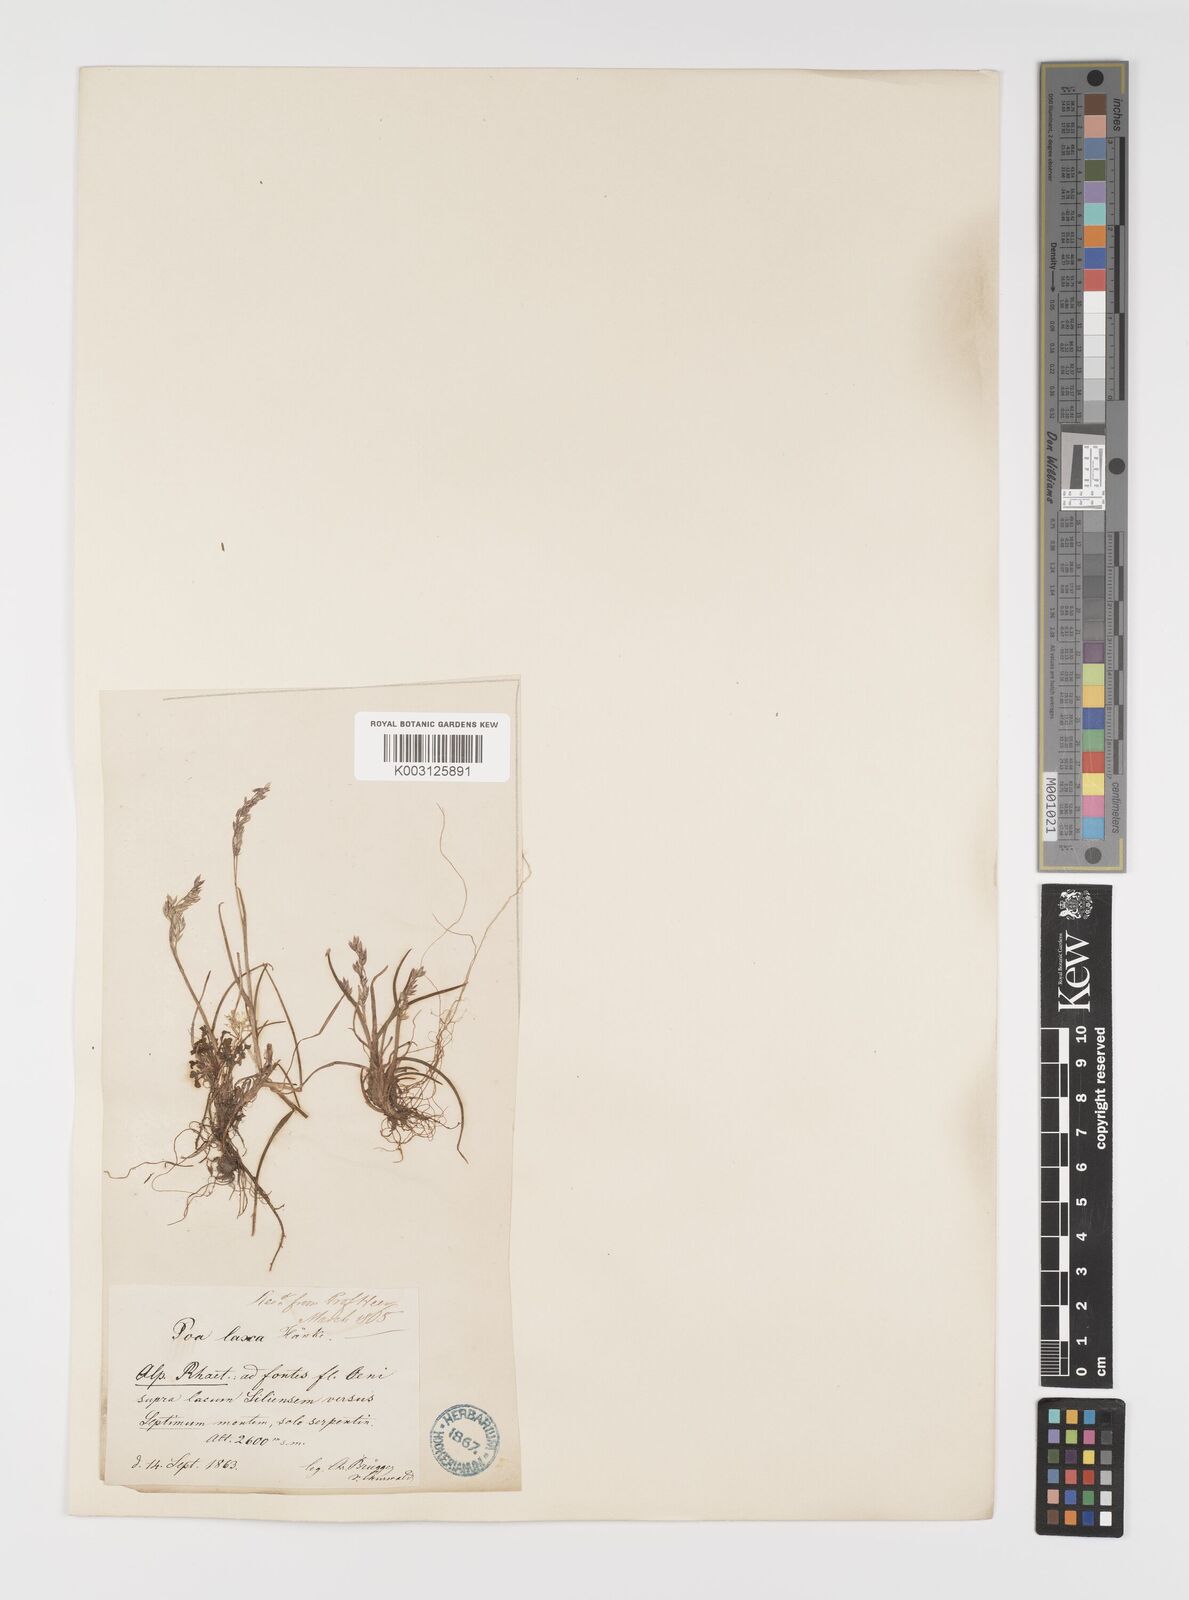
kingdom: Plantae
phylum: Tracheophyta
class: Liliopsida
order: Poales
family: Poaceae
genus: Poa
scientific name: Poa laxa
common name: Lax bluegrass
